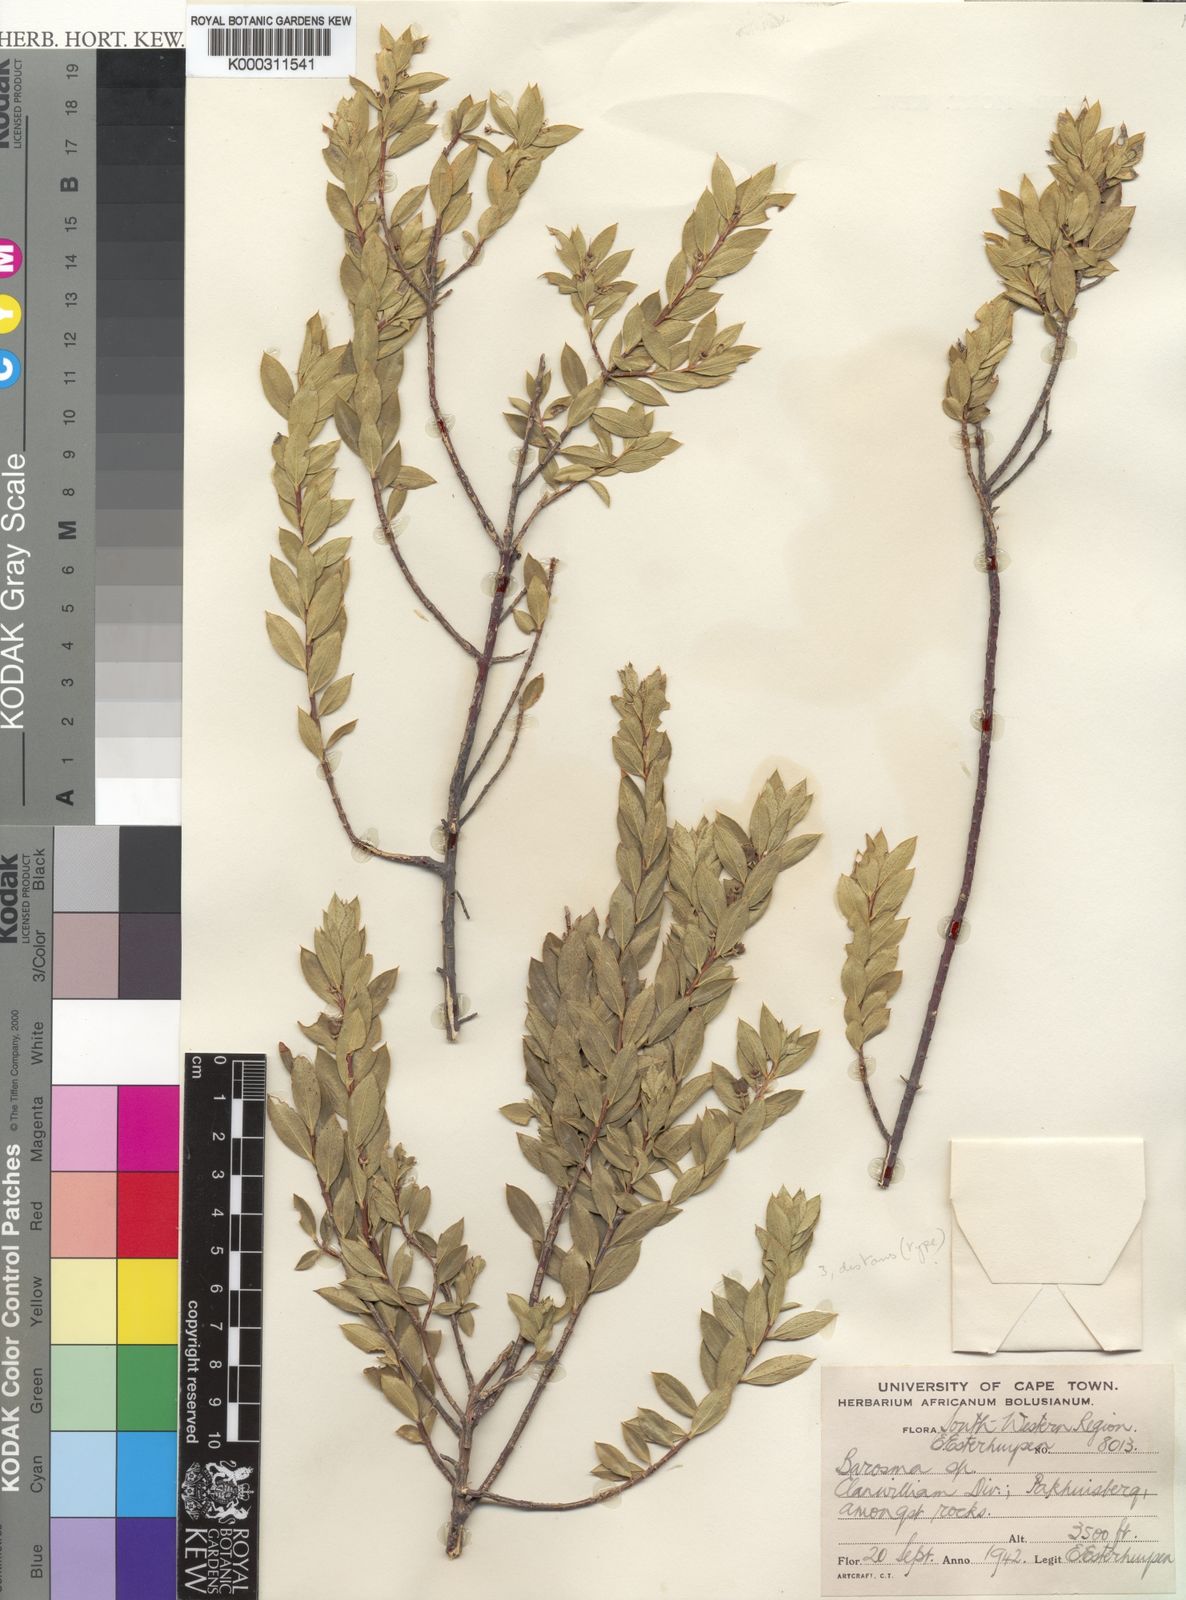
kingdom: Plantae
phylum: Tracheophyta
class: Magnoliopsida
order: Sapindales
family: Rutaceae
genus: Agathosma
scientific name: Agathosma
